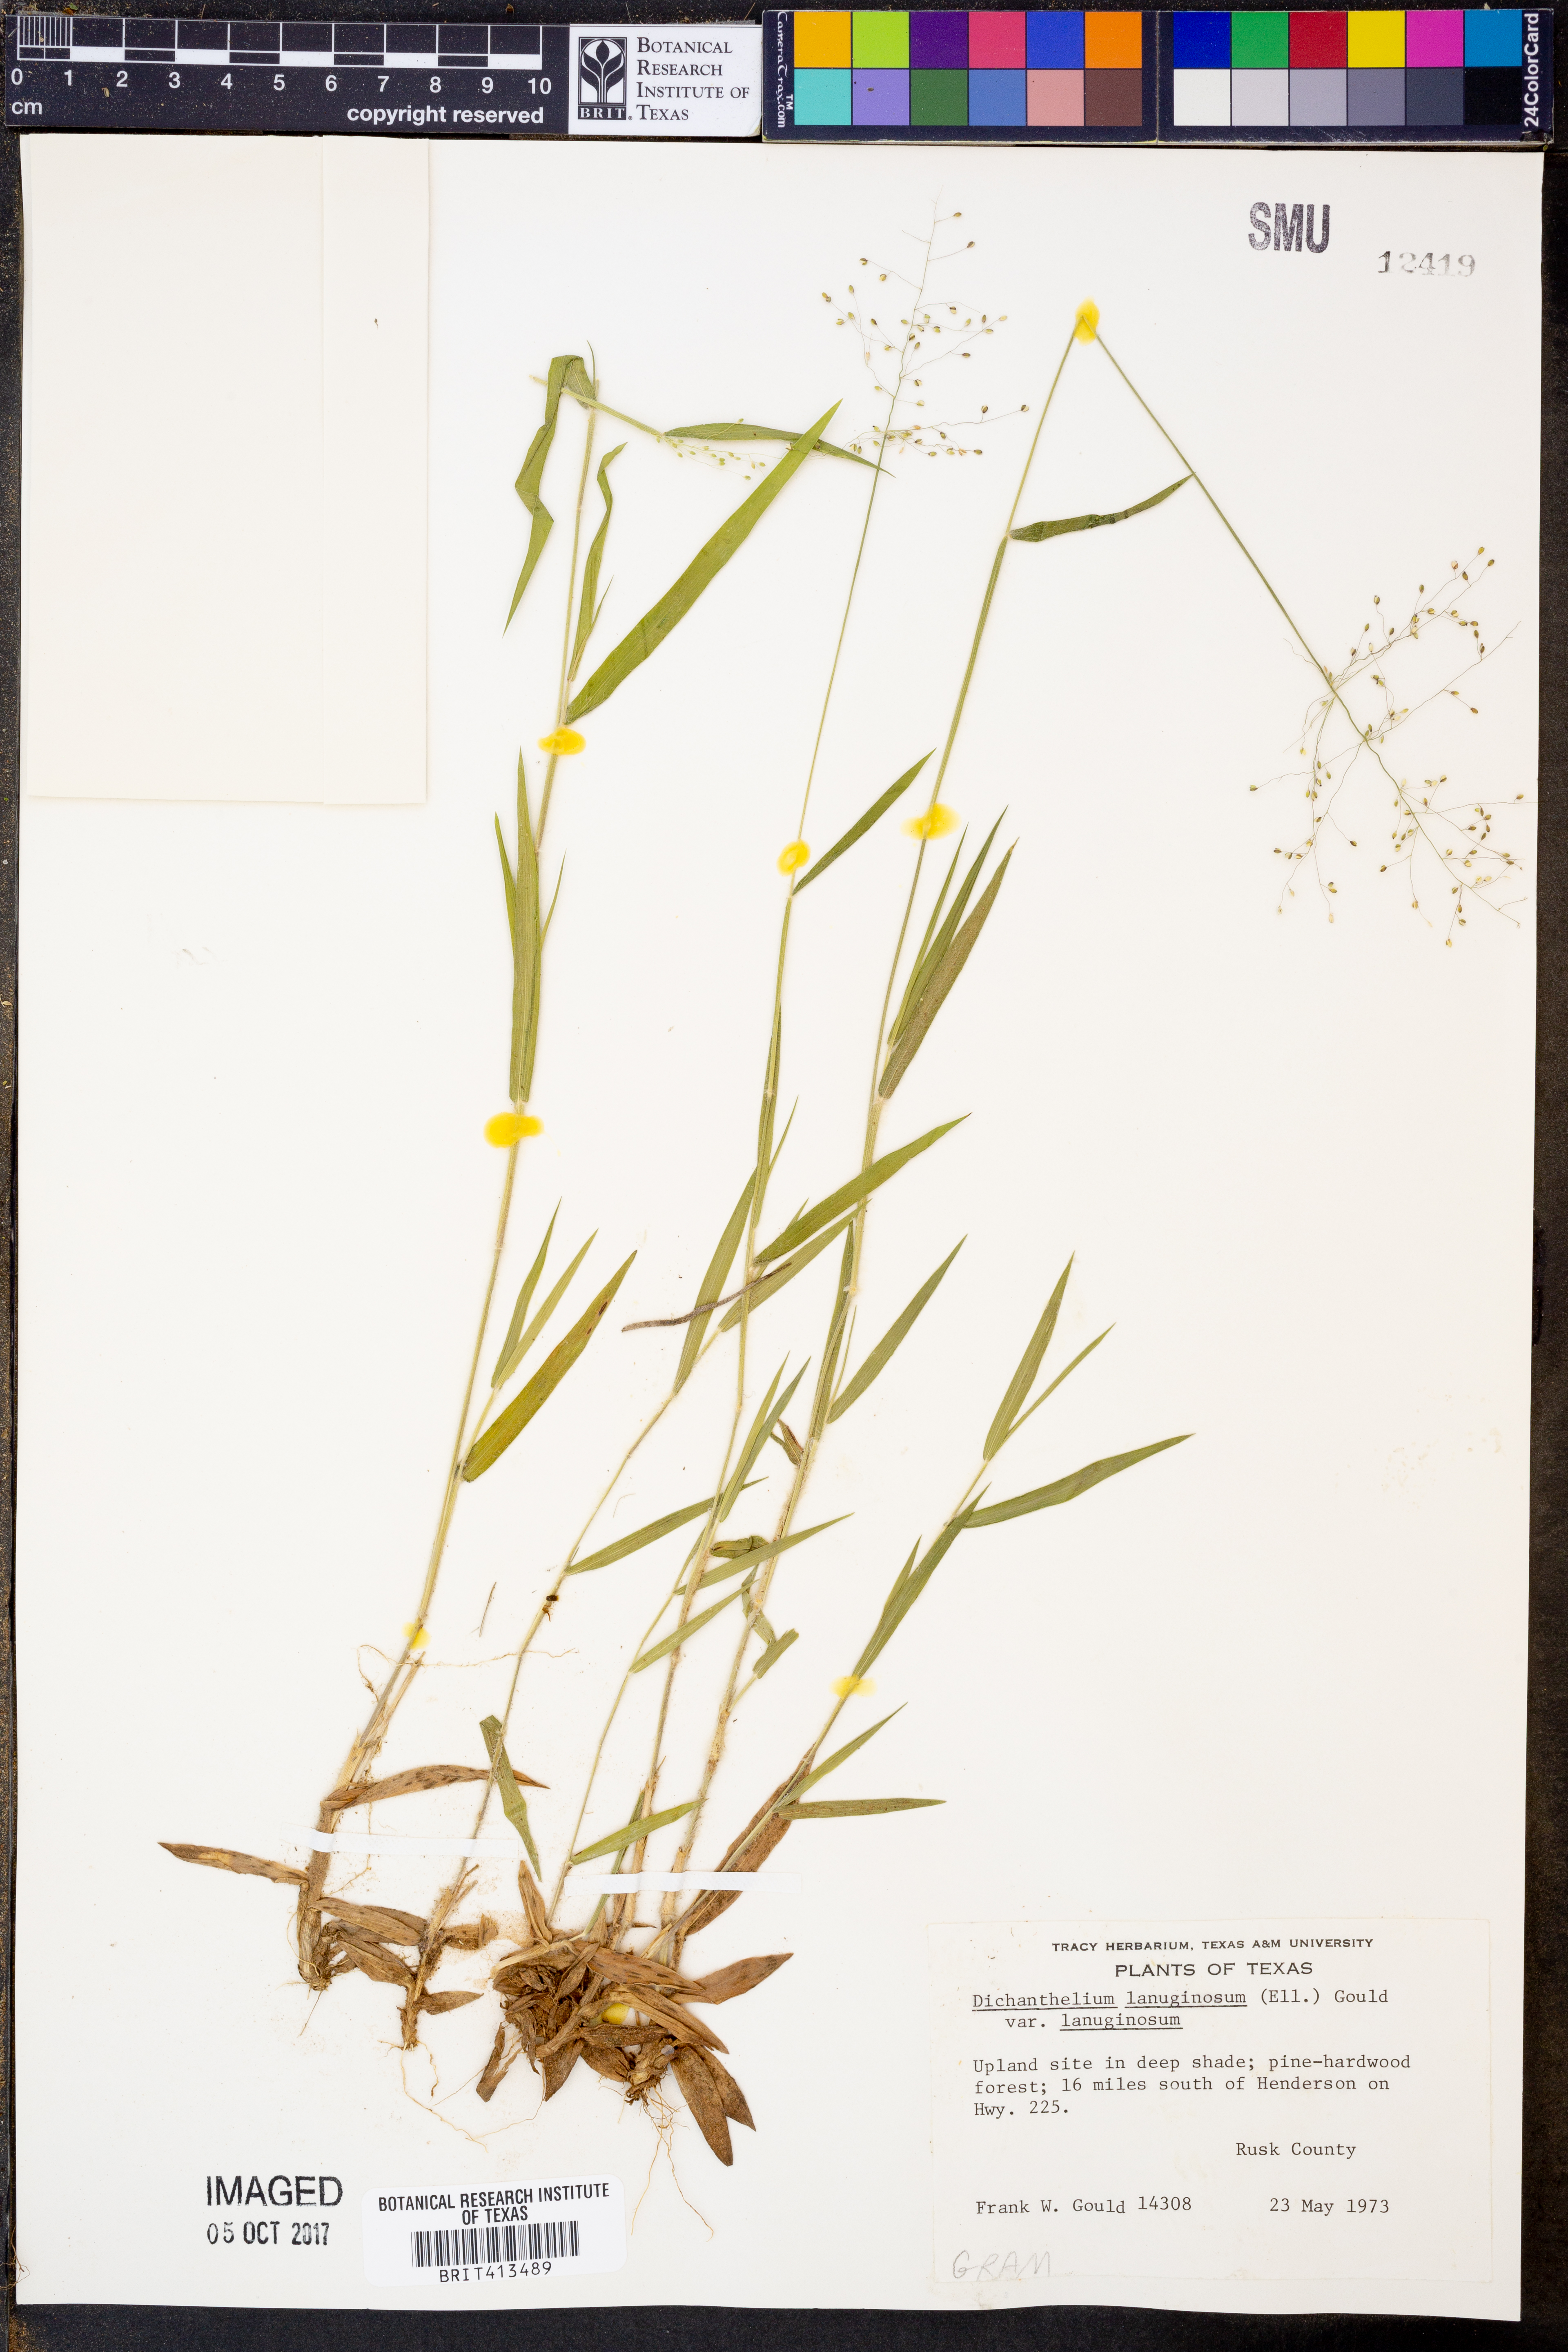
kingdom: Plantae
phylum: Tracheophyta
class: Liliopsida
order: Poales
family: Poaceae
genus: Dichanthelium
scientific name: Dichanthelium lanuginosum
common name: Woolly panicgrass
